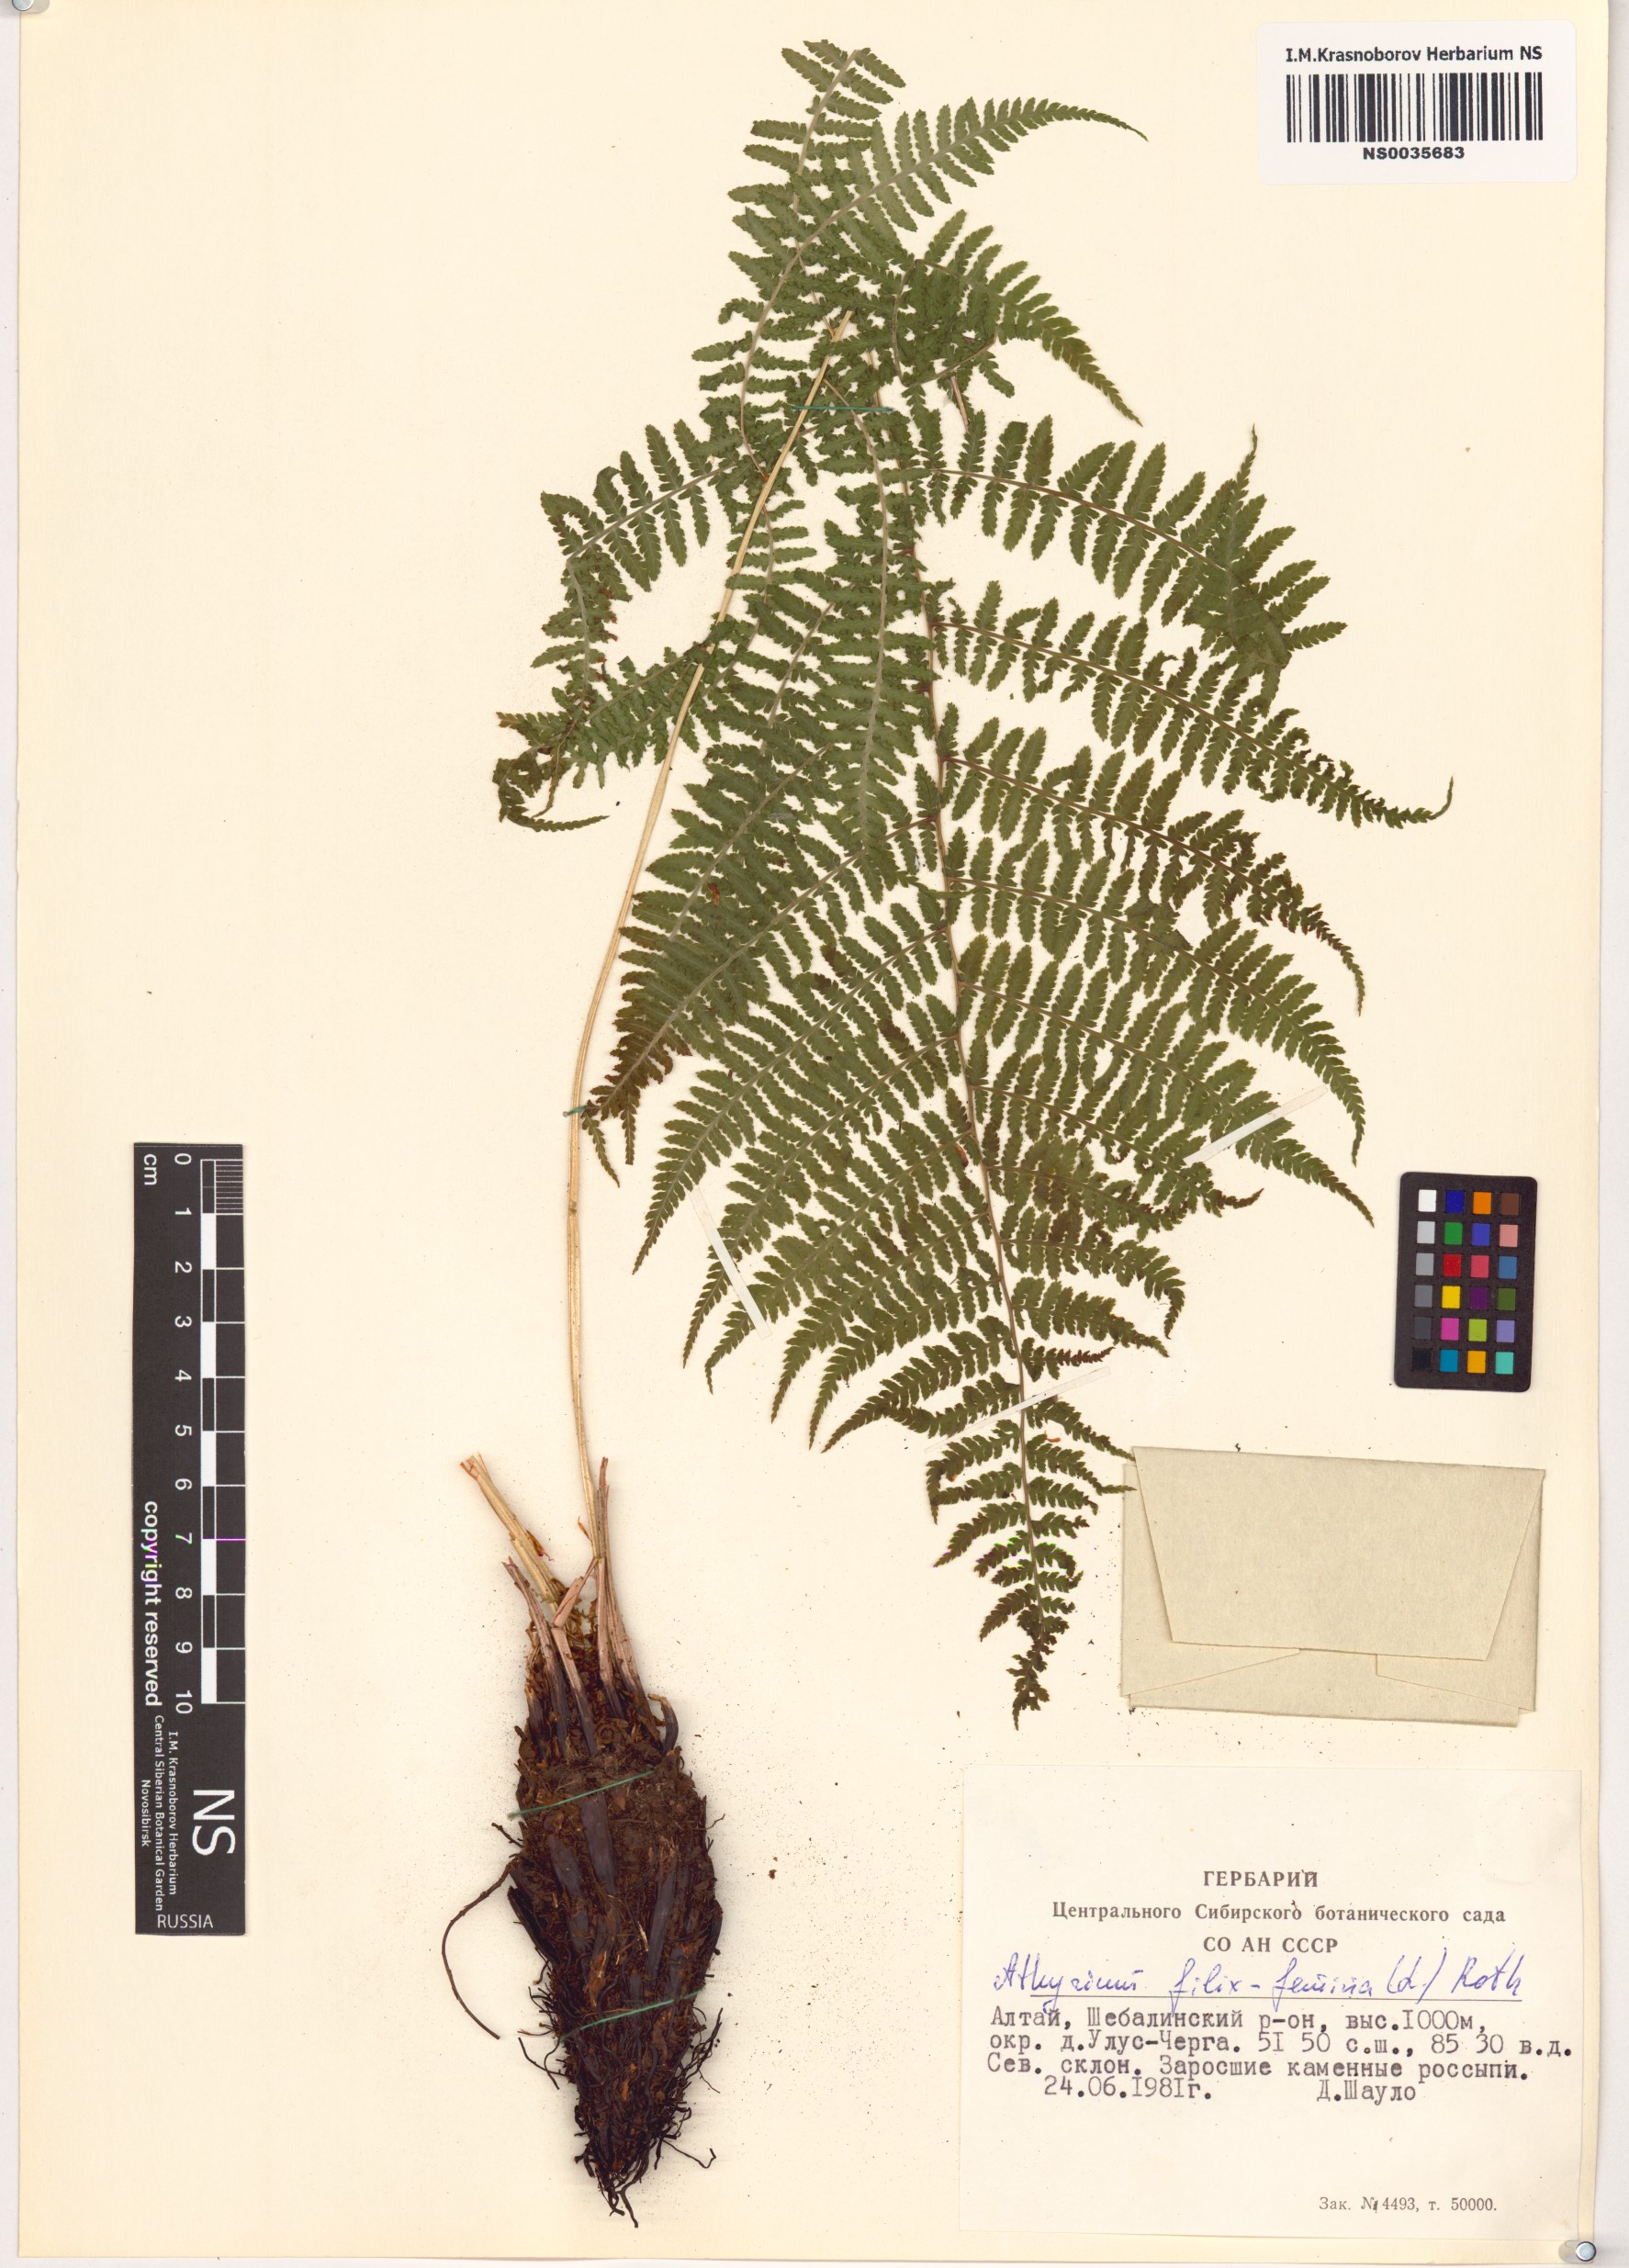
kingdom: Plantae
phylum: Tracheophyta
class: Polypodiopsida
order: Polypodiales
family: Athyriaceae
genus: Athyrium
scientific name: Athyrium filix-femina
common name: Lady fern
